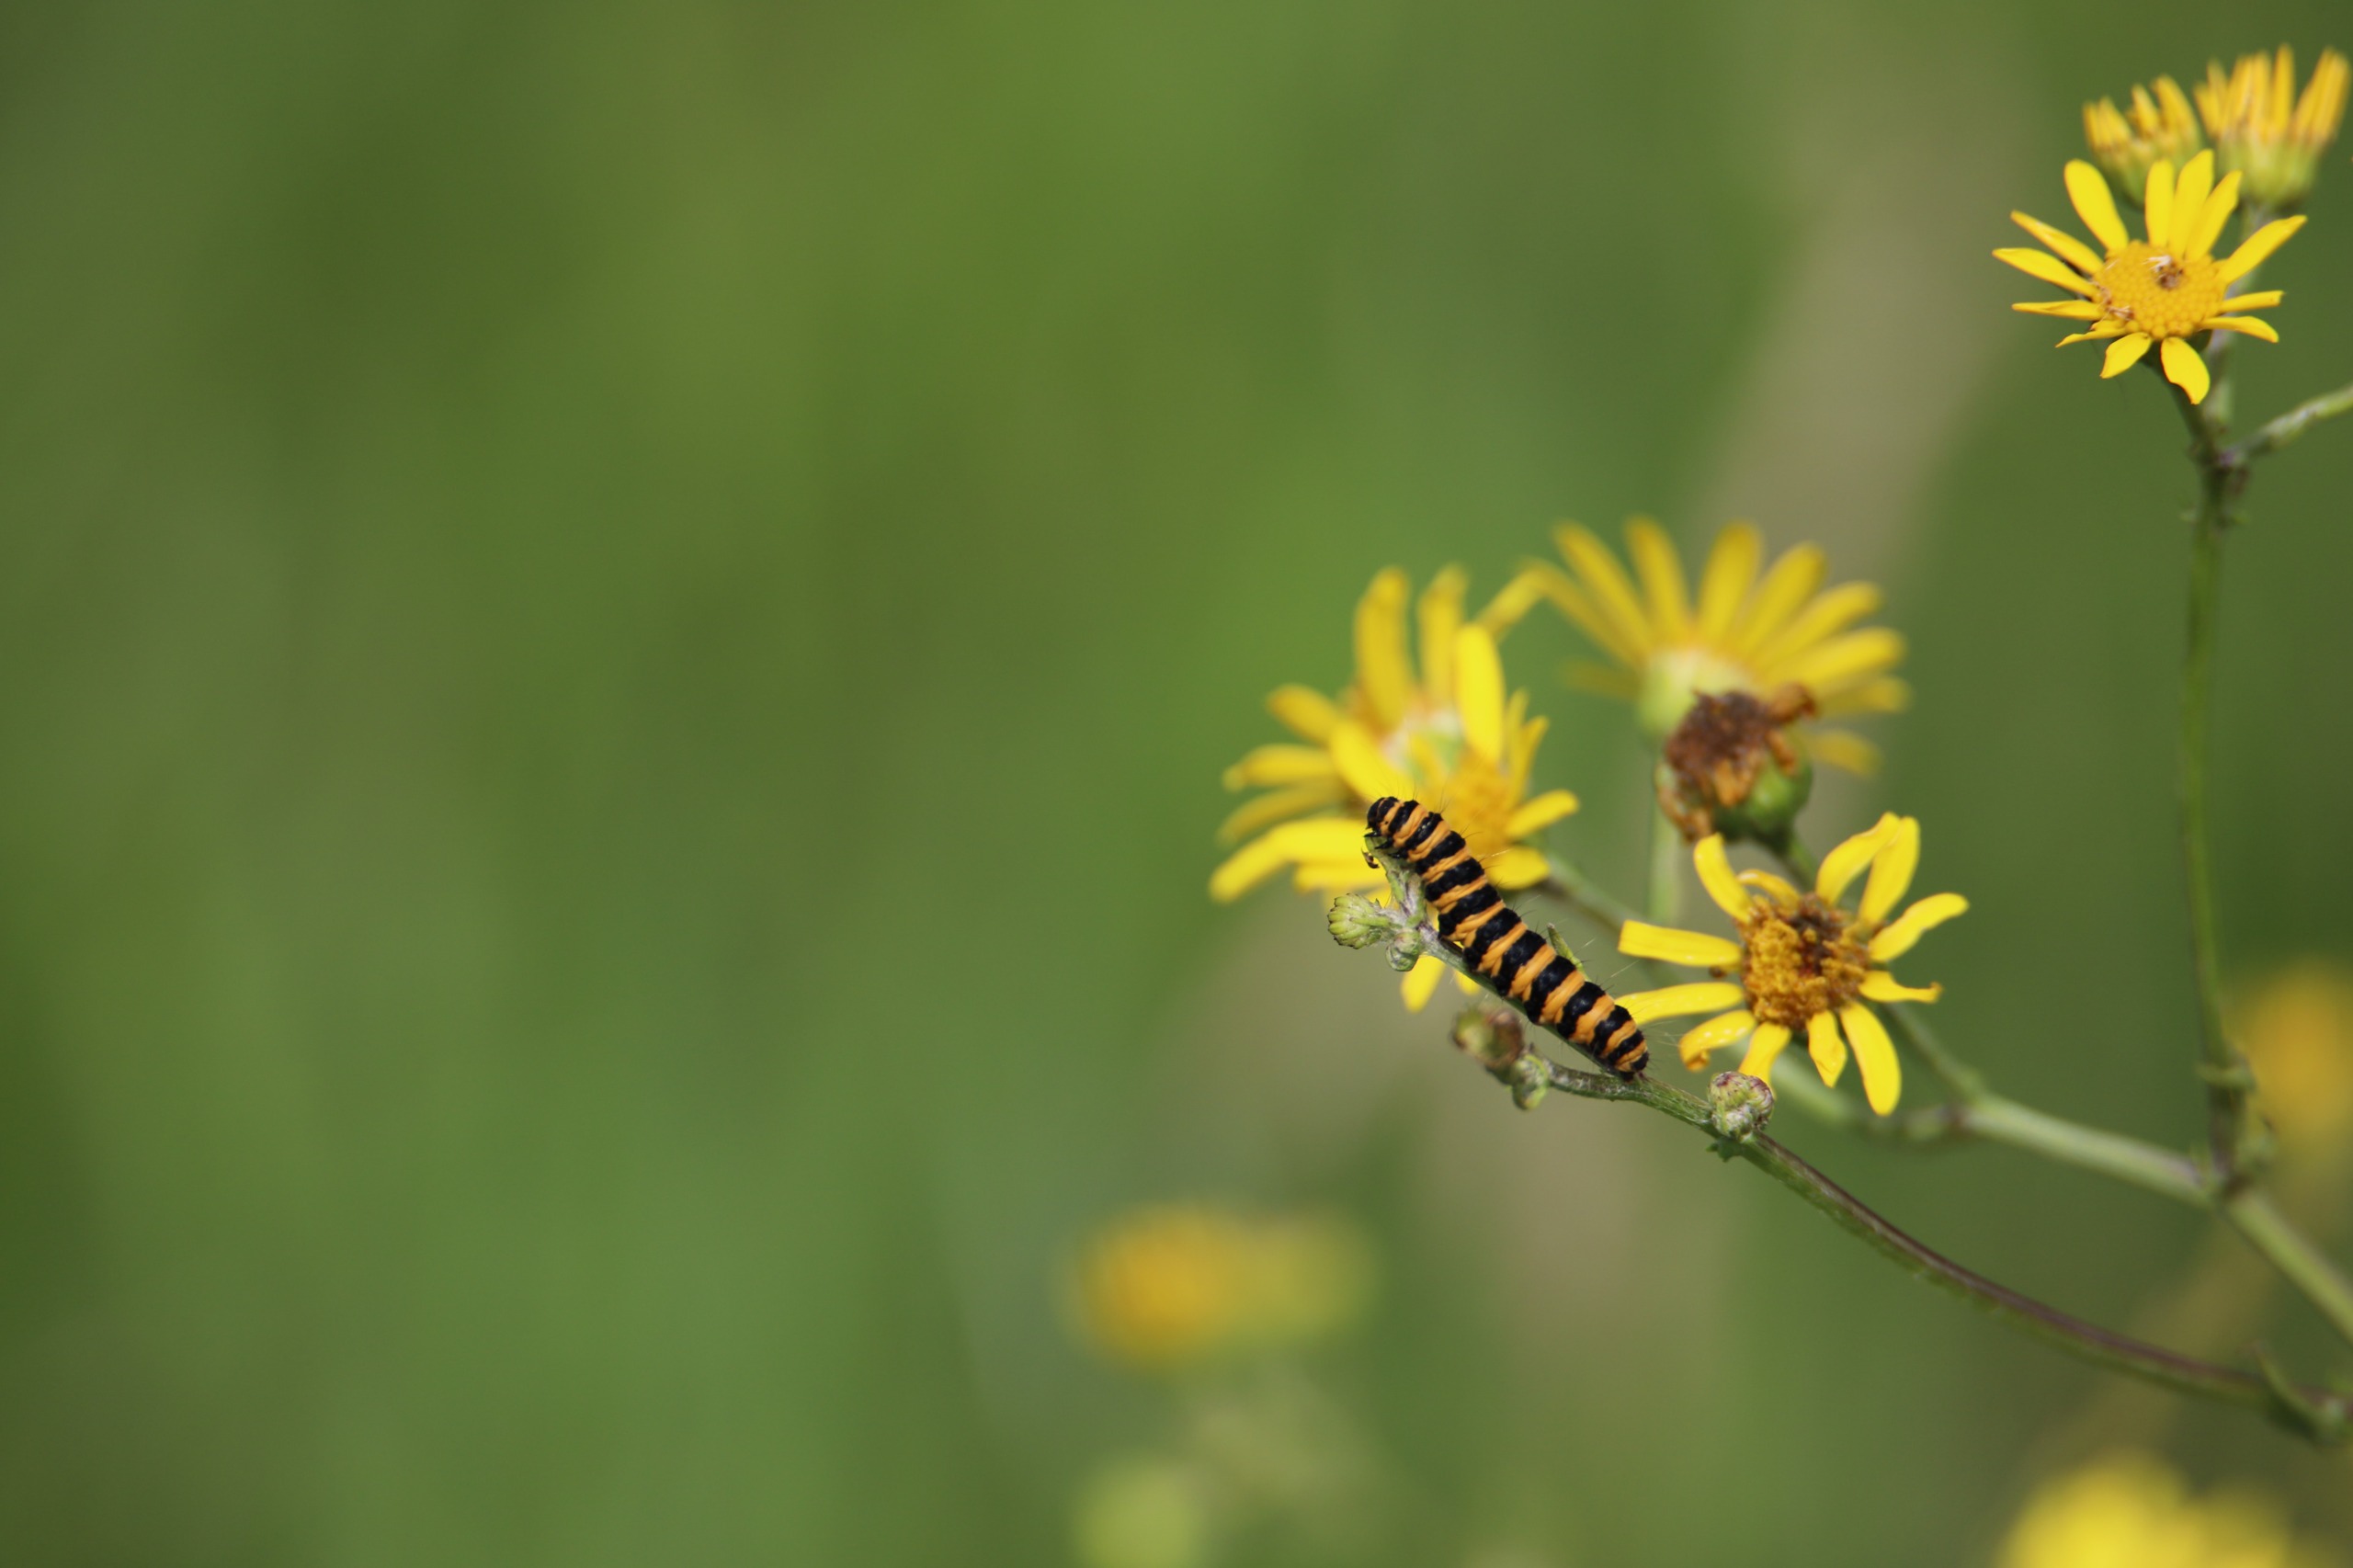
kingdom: Animalia
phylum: Arthropoda
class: Insecta
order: Lepidoptera
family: Erebidae
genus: Tyria
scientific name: Tyria jacobaeae
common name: Blodplet
